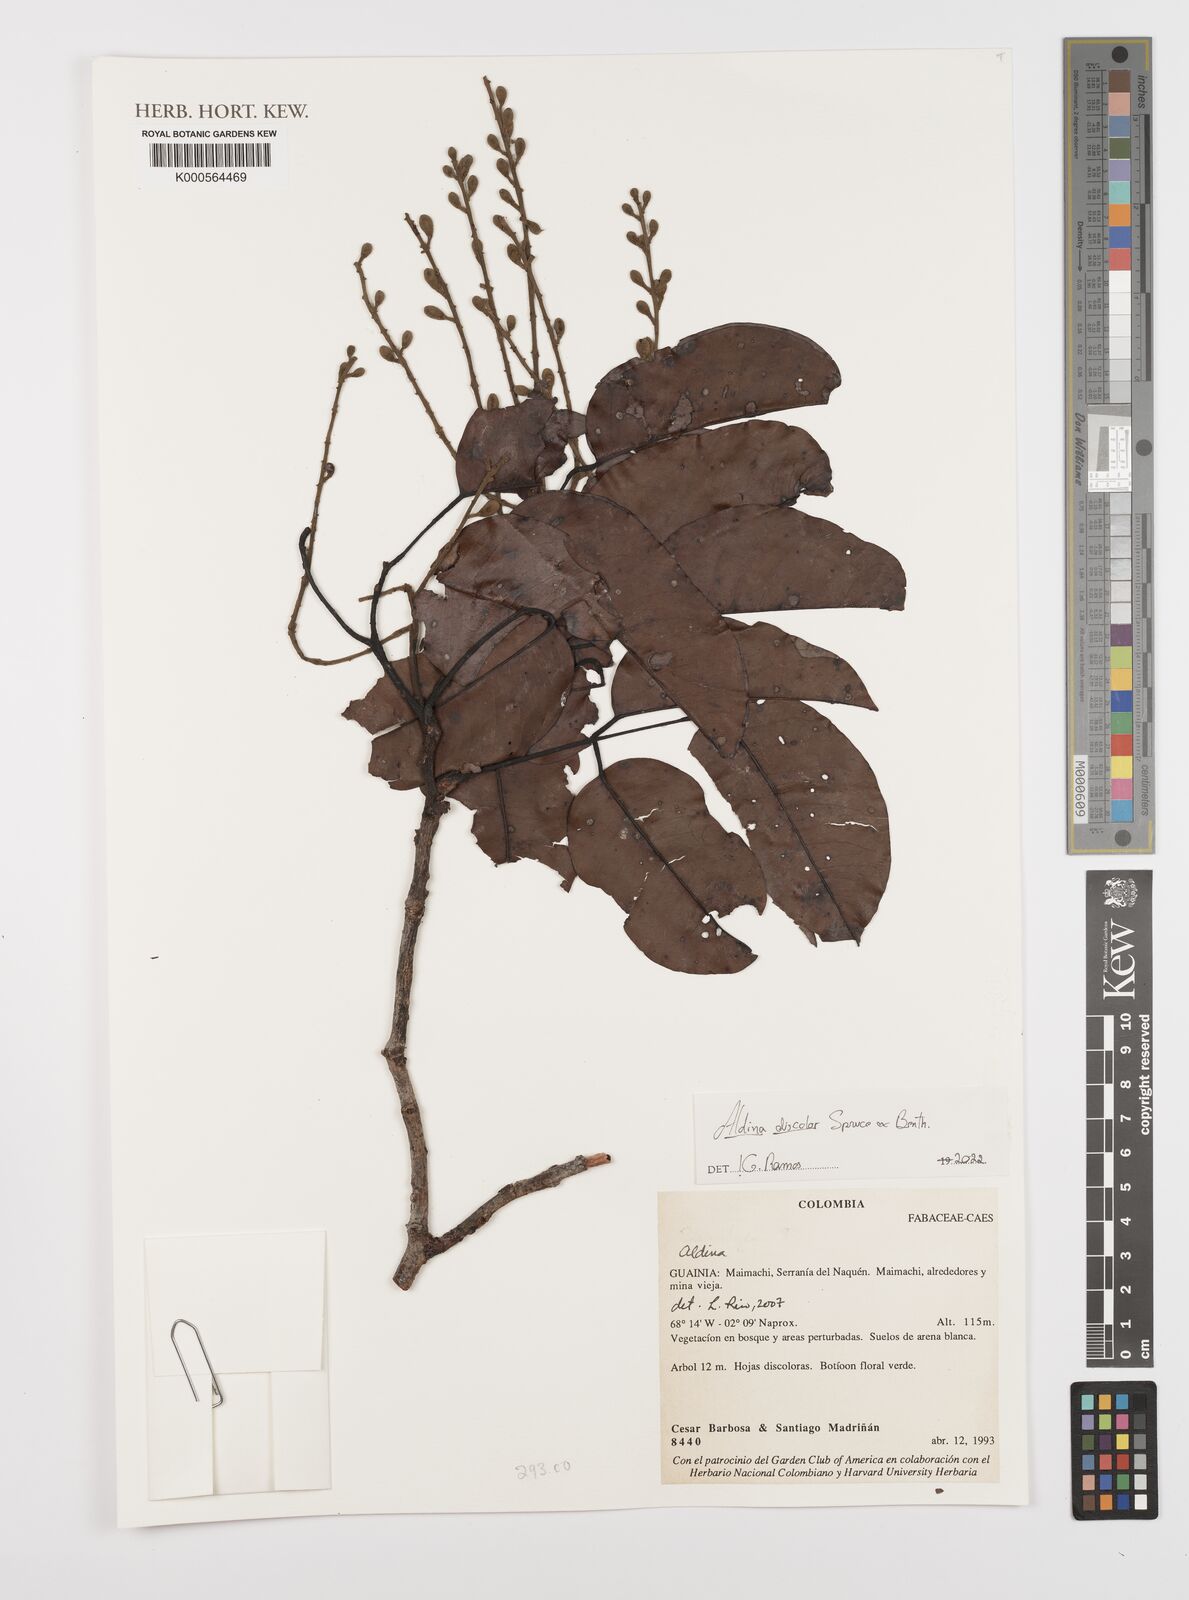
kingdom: Plantae
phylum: Tracheophyta
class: Magnoliopsida
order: Fabales
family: Fabaceae
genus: Aldina
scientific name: Aldina
